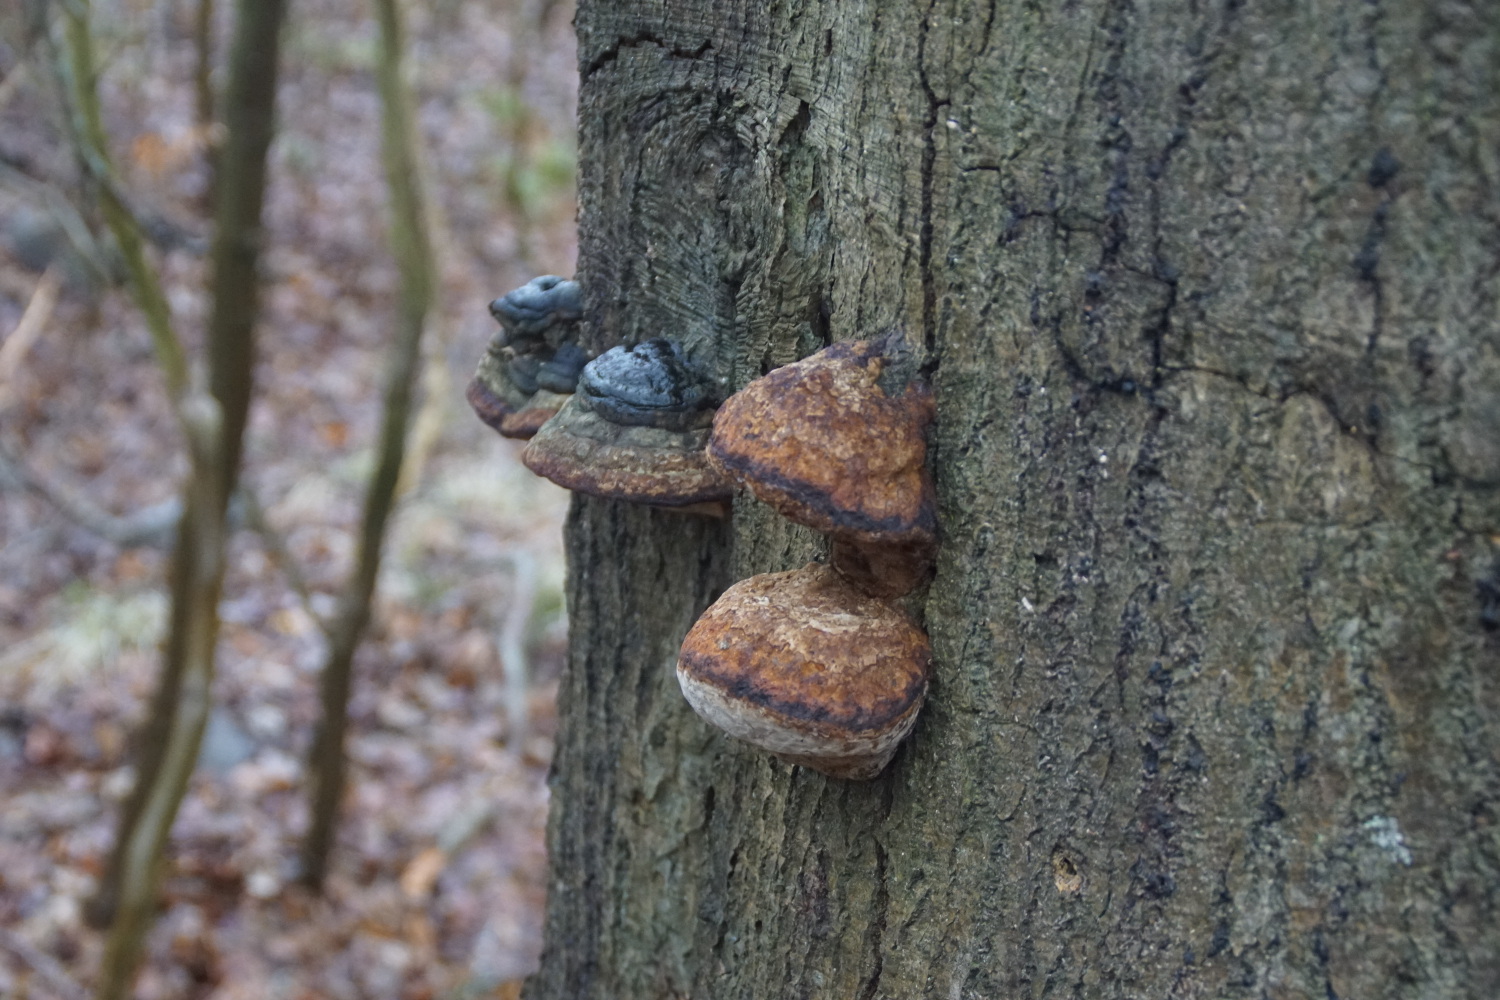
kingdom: Fungi
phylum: Basidiomycota
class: Agaricomycetes
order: Polyporales
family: Polyporaceae
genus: Fomes
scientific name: Fomes fomentarius
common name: tøndersvamp
